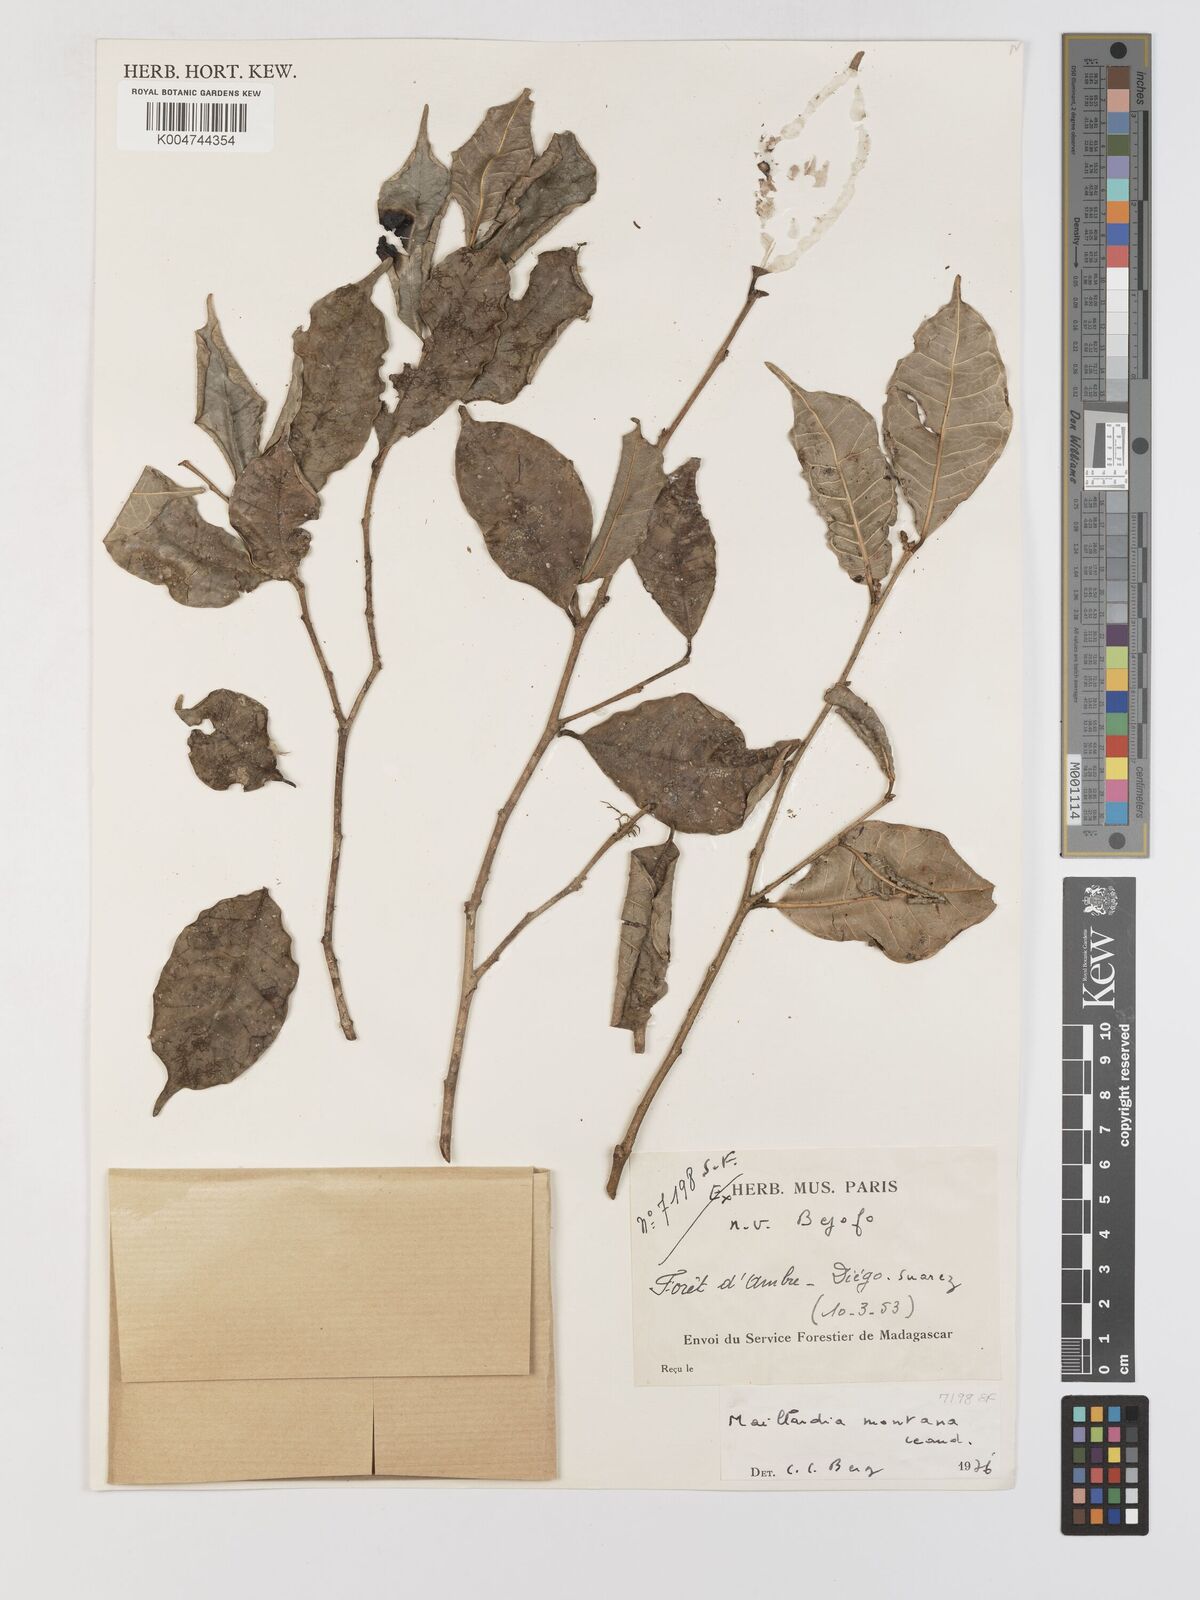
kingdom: Plantae
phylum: Tracheophyta
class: Magnoliopsida
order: Rosales
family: Moraceae
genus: Maillardia
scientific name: Maillardia montana
